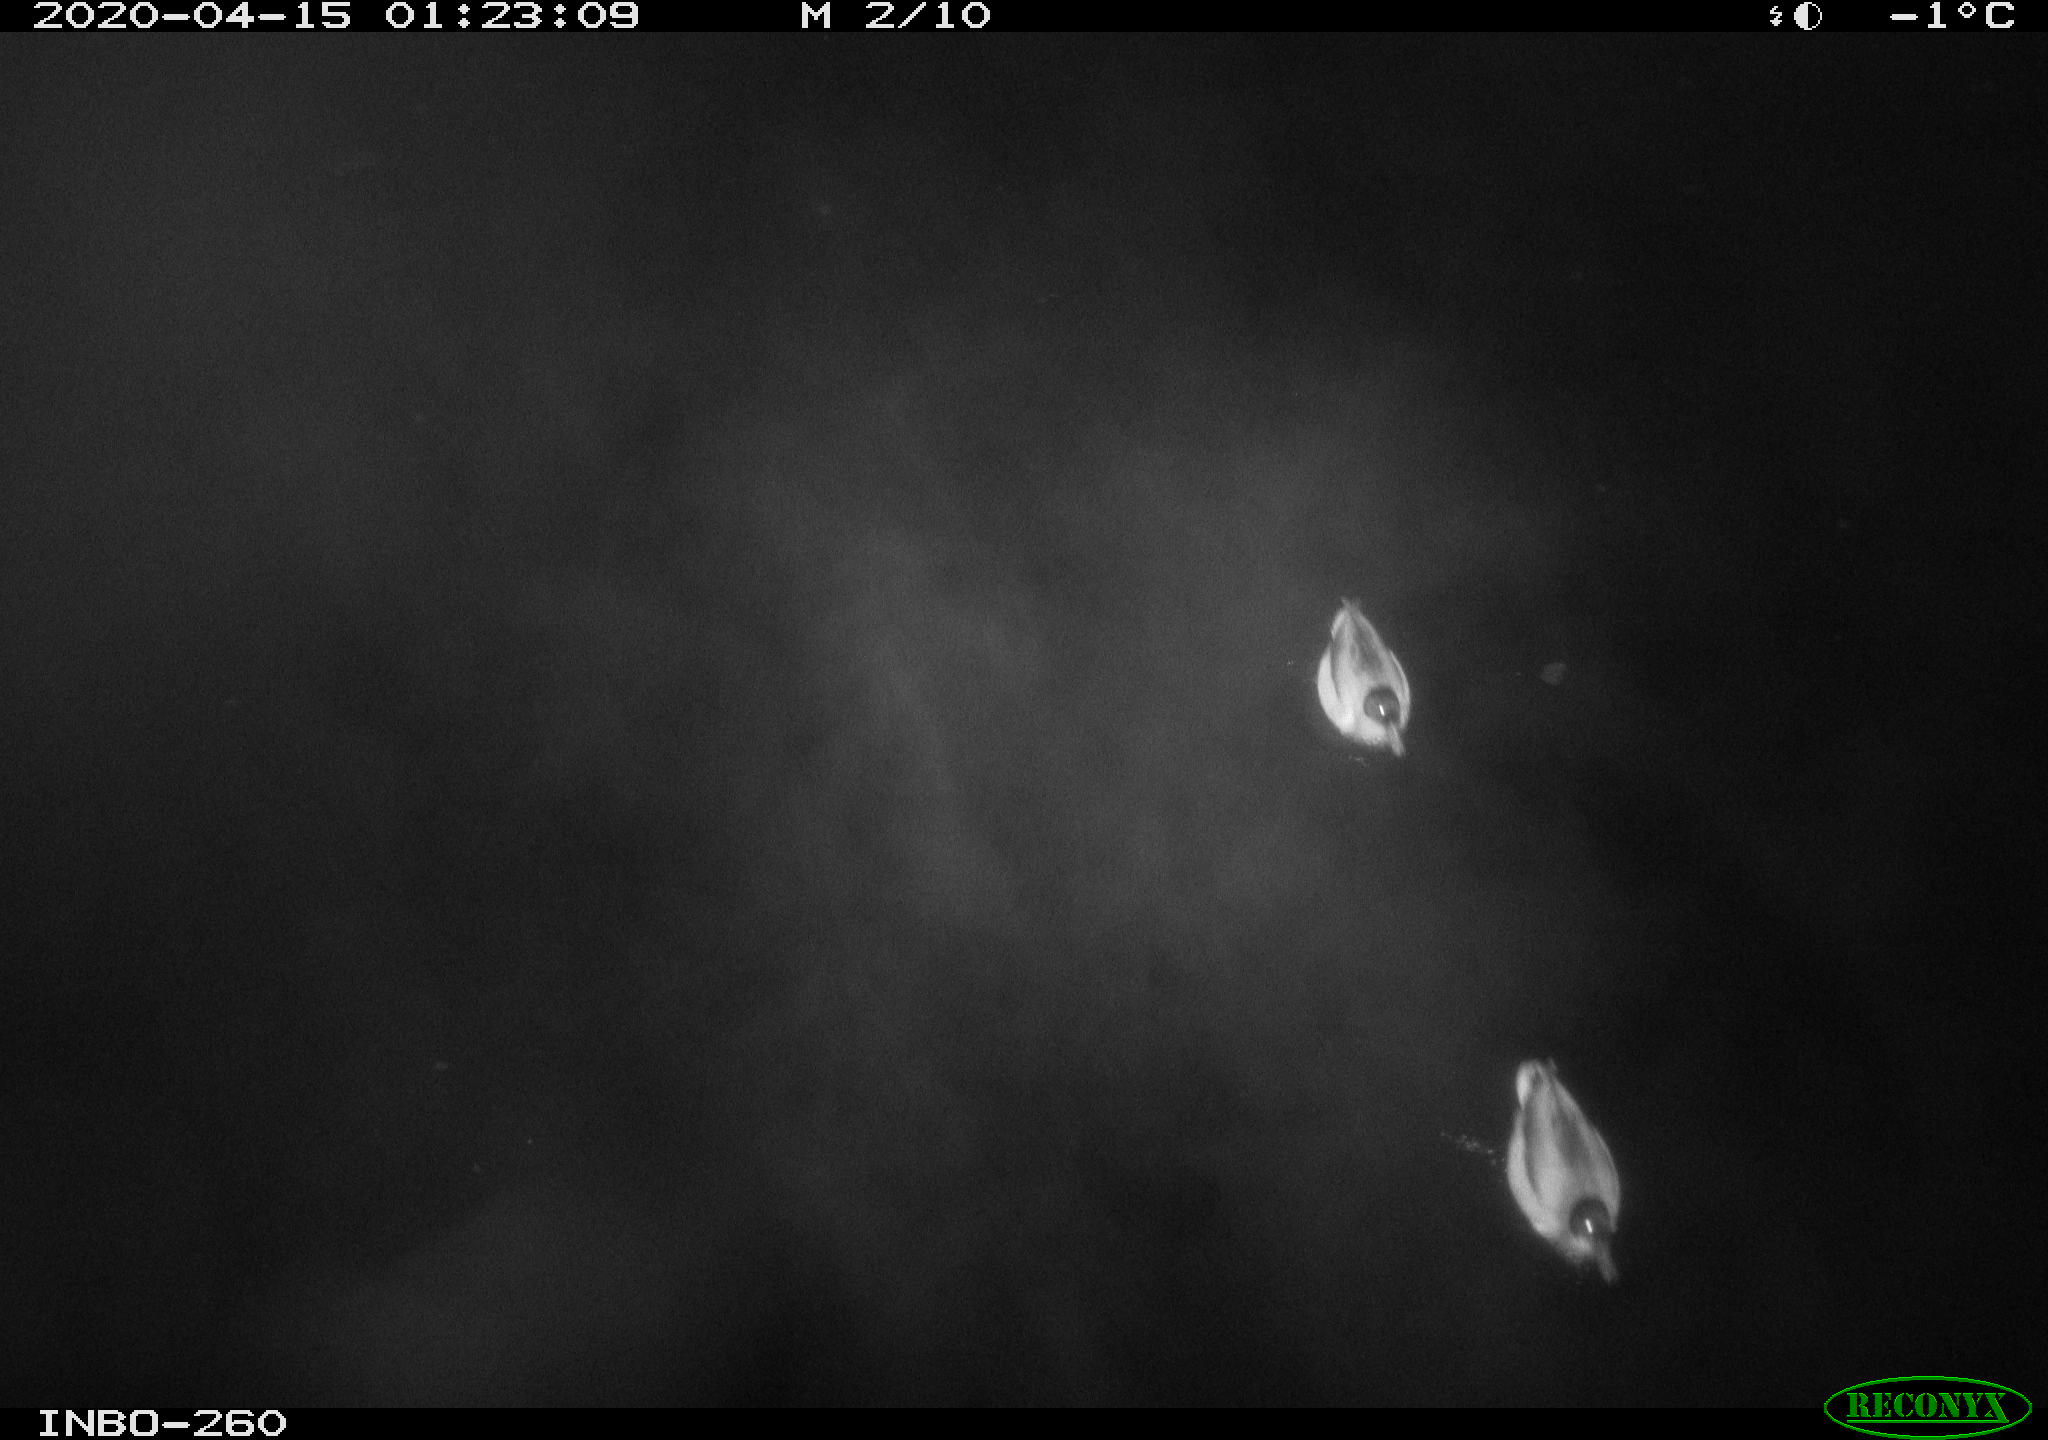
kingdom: Animalia
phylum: Chordata
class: Aves
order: Anseriformes
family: Anatidae
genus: Anas
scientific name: Anas platyrhynchos
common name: Mallard
